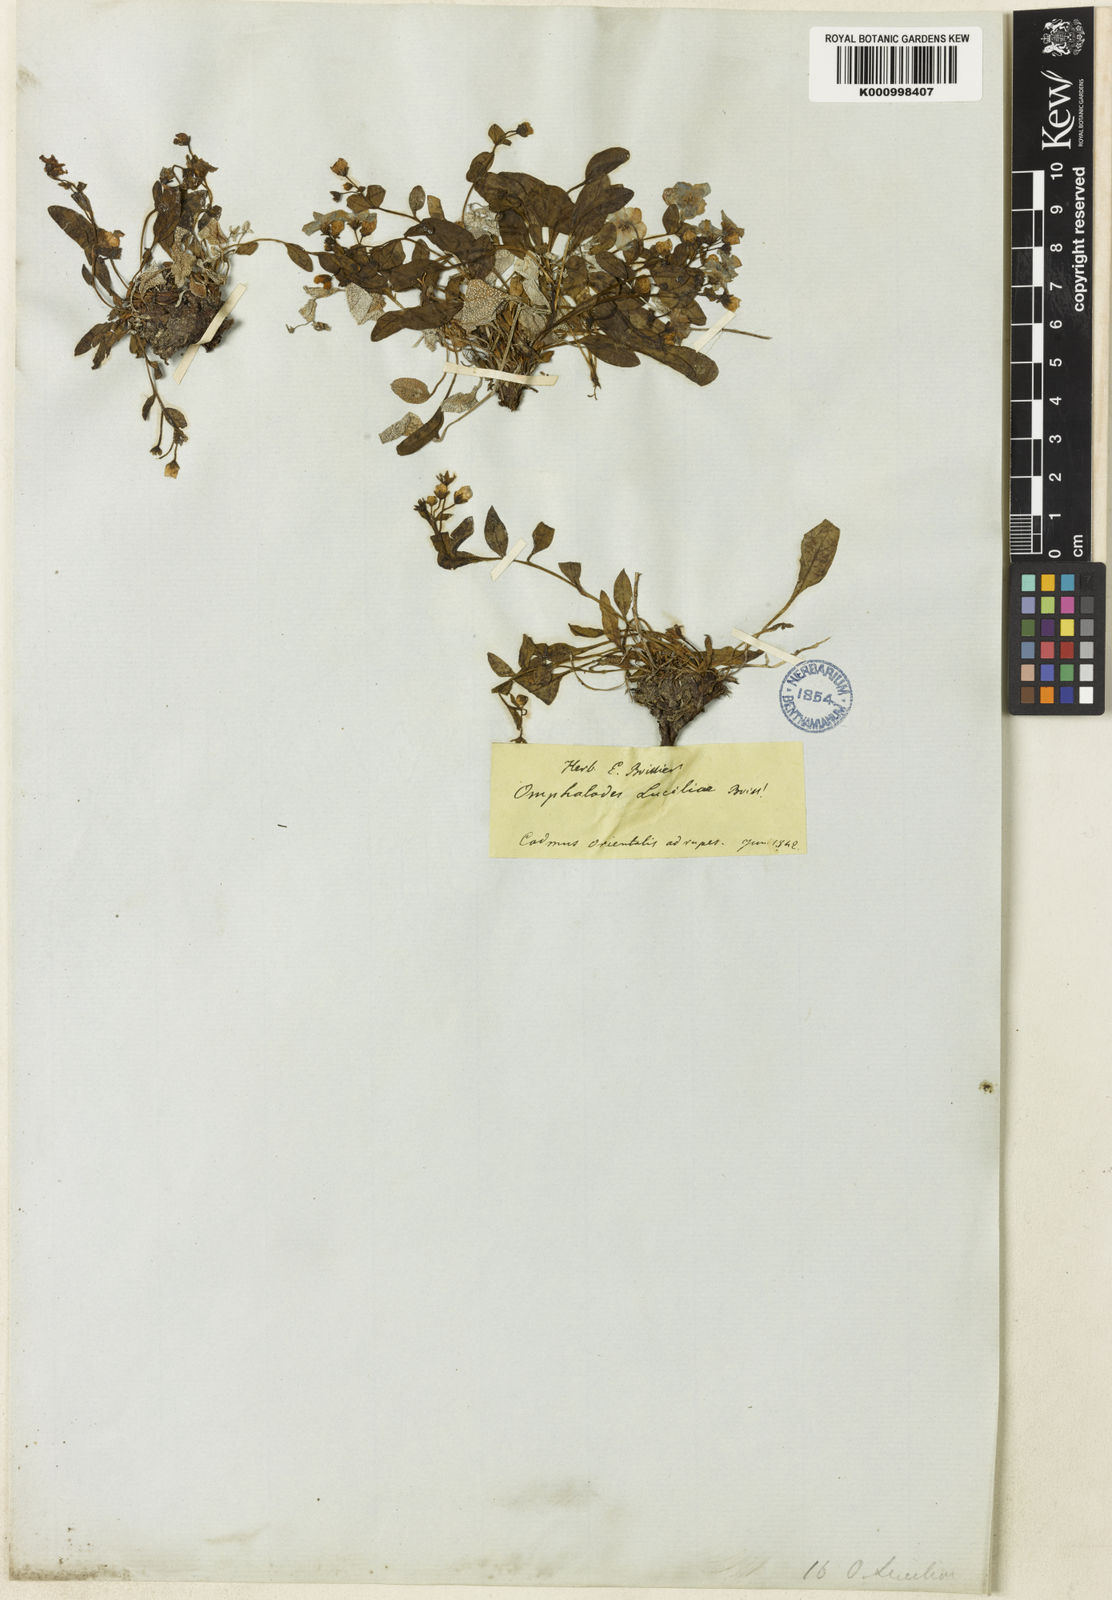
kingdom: Plantae
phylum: Tracheophyta
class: Magnoliopsida
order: Boraginales
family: Boraginaceae
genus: Omphalodes
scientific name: Omphalodes luciliae
